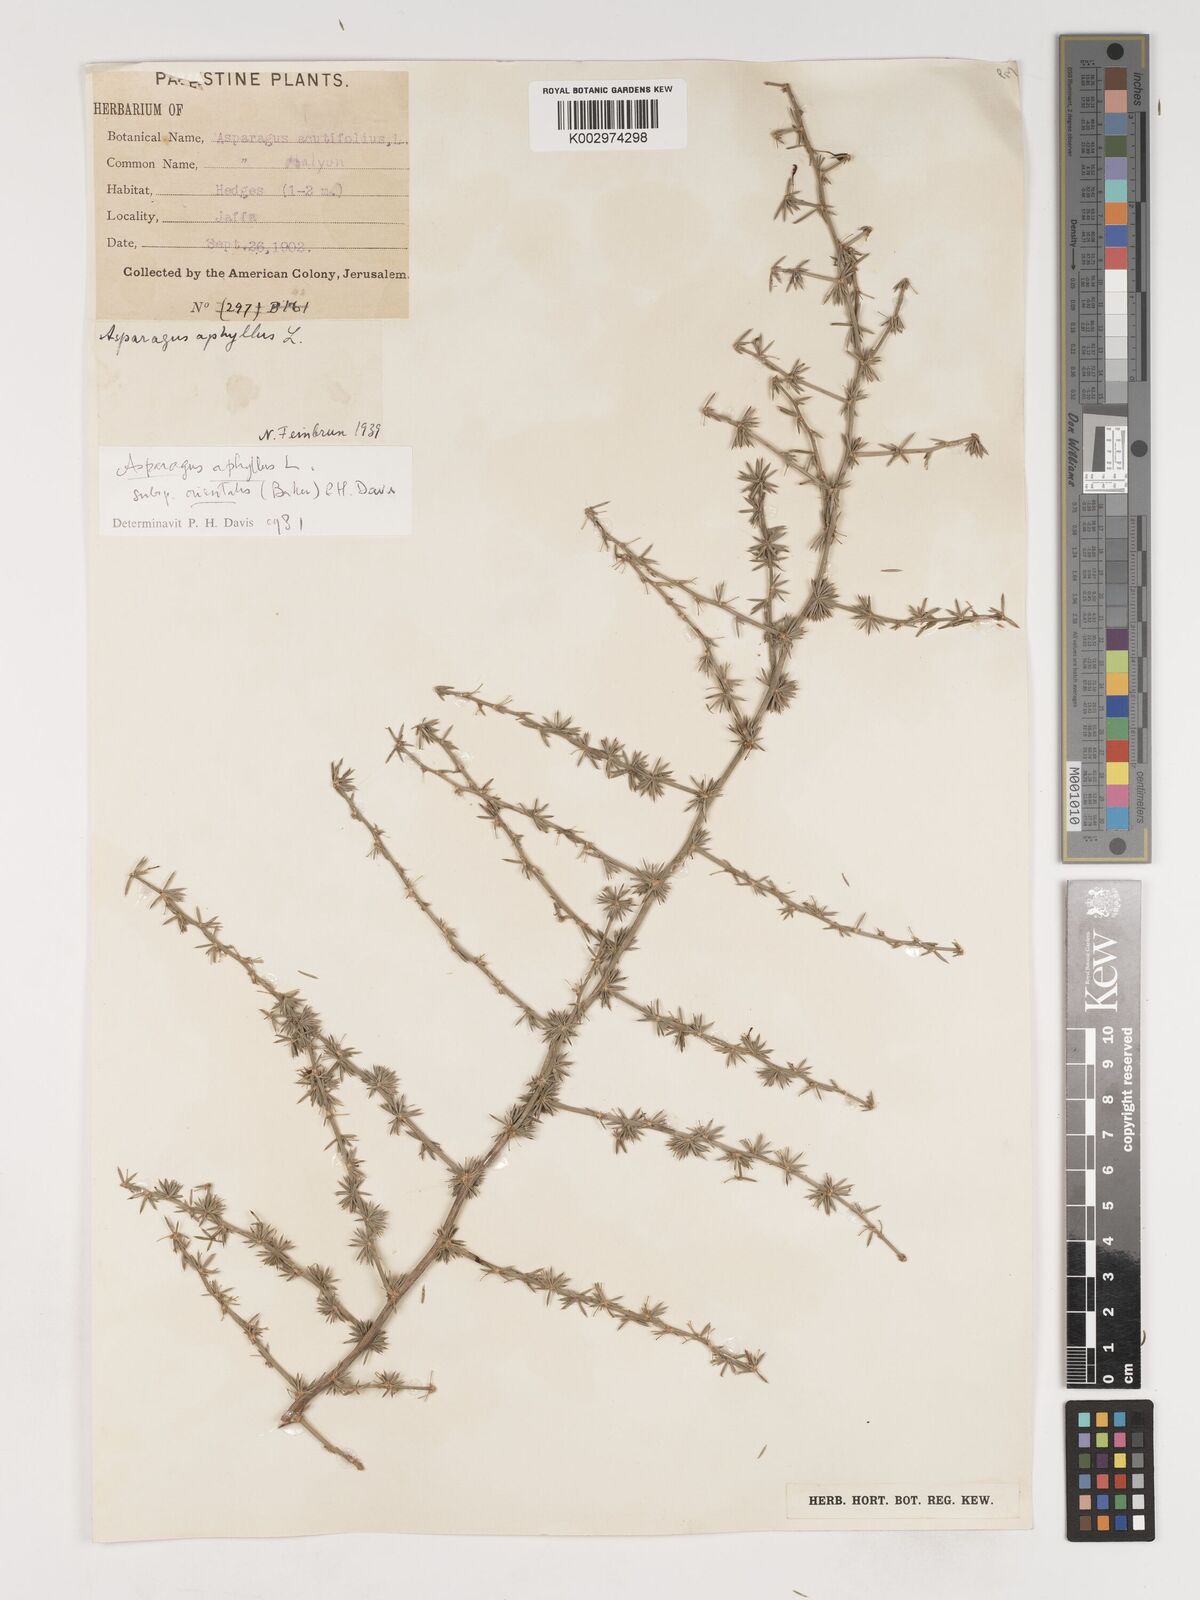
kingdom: Plantae
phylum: Tracheophyta
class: Liliopsida
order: Asparagales
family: Asparagaceae
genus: Asparagus
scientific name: Asparagus aphyllus
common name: Mediterranean asparagus
